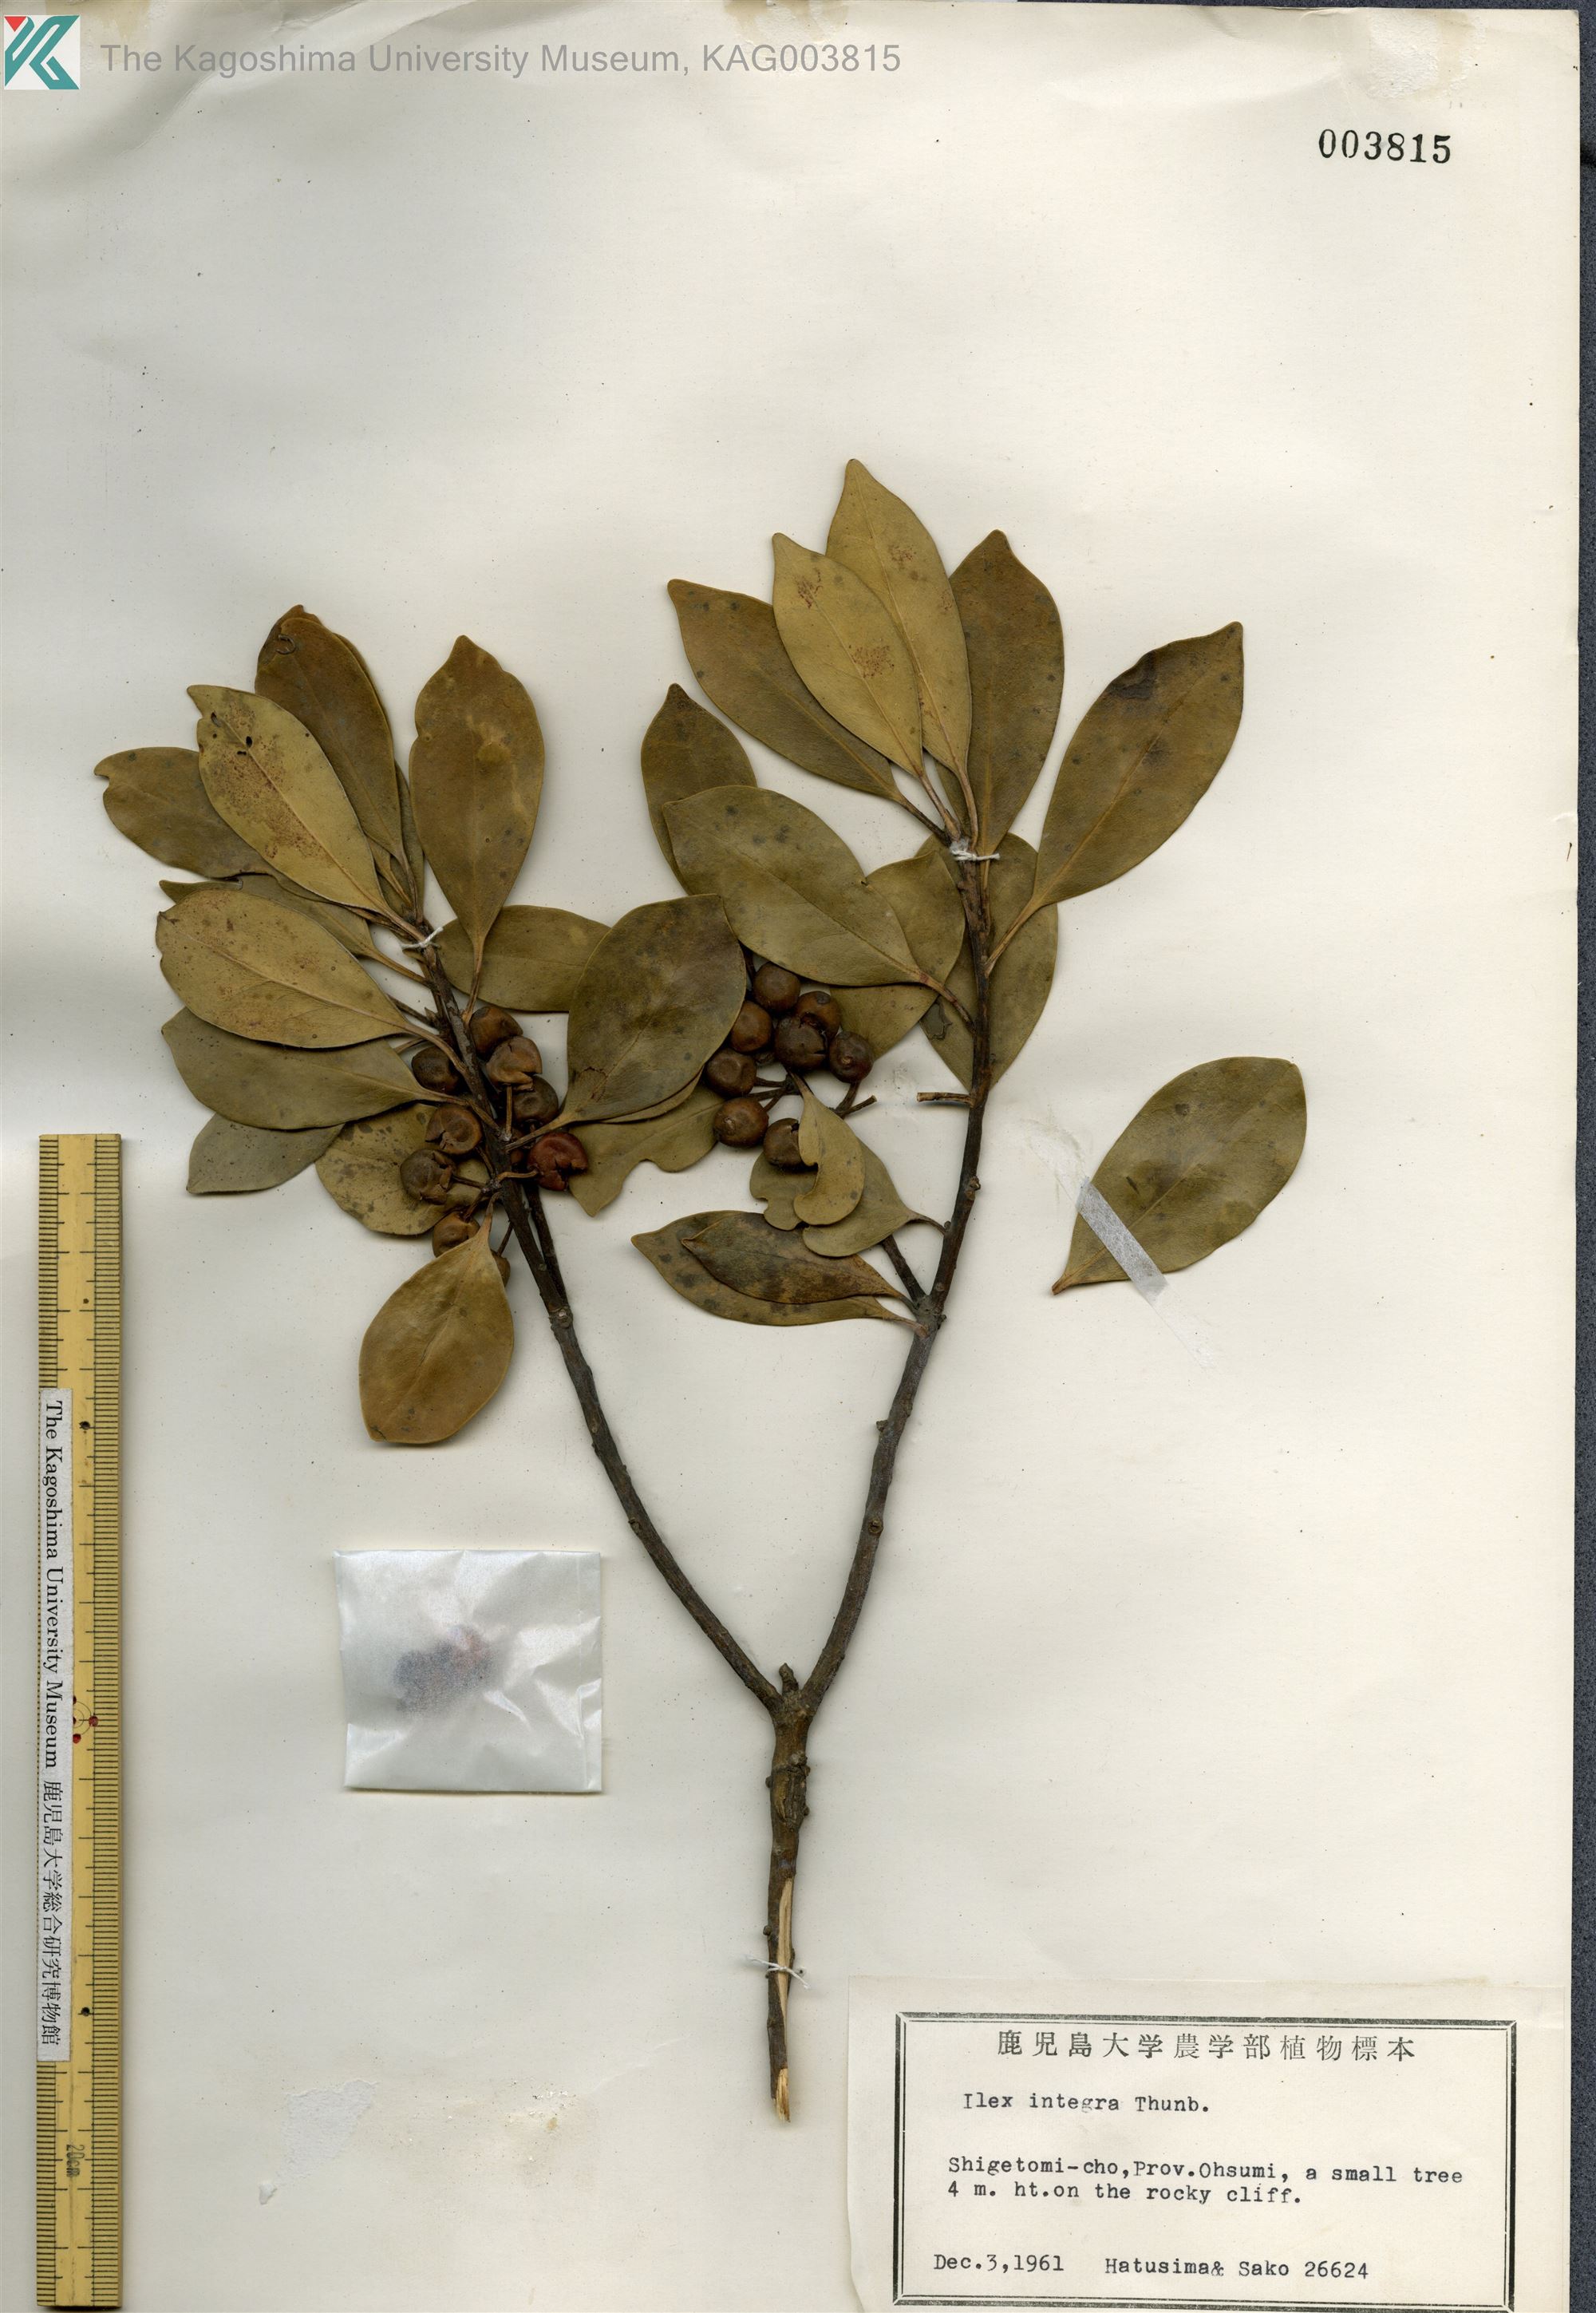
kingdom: Plantae
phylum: Tracheophyta
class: Magnoliopsida
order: Aquifoliales
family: Aquifoliaceae
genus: Ilex
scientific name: Ilex integra
